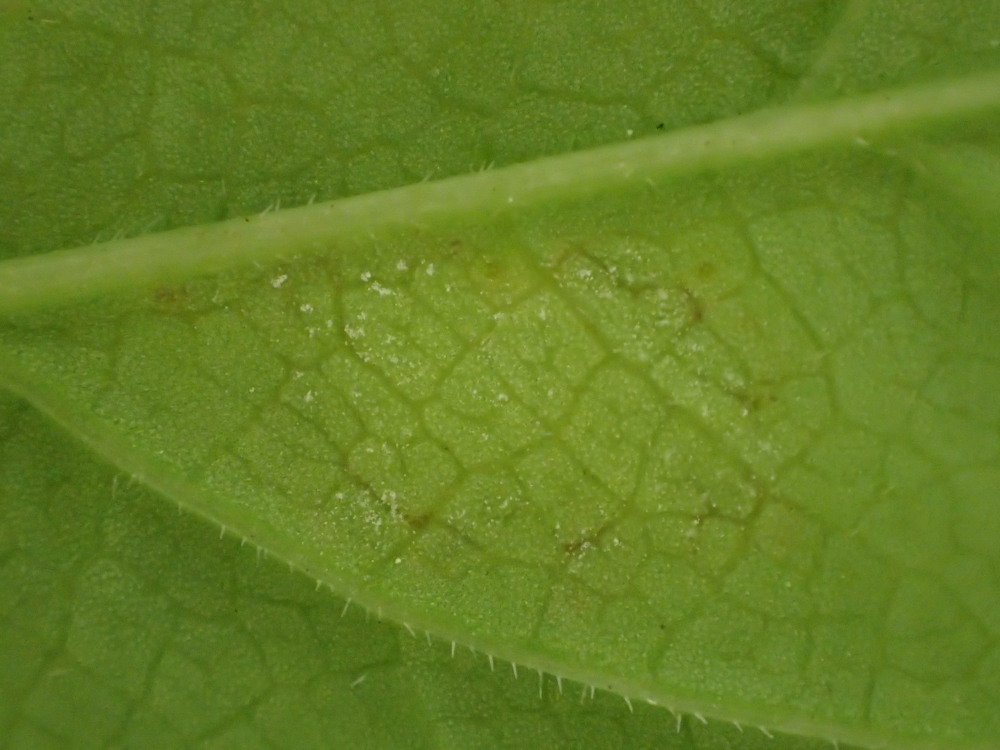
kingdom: Chromista
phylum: Oomycota
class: Peronosporea
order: Peronosporales
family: Peronosporaceae
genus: Peronospora
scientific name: Peronospora crustosa
